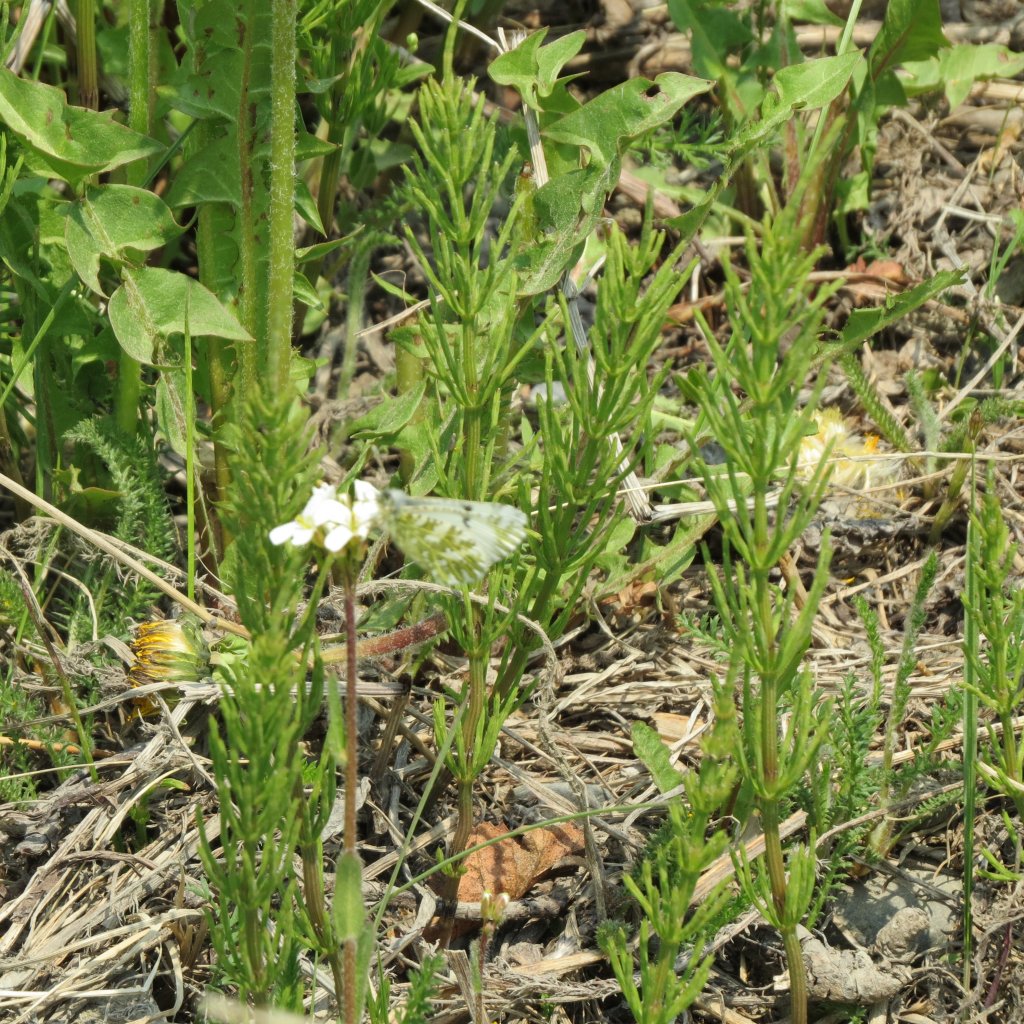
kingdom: Animalia
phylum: Arthropoda
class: Insecta
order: Lepidoptera
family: Pieridae
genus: Euchloe
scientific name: Euchloe ausonides
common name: Large Marble
